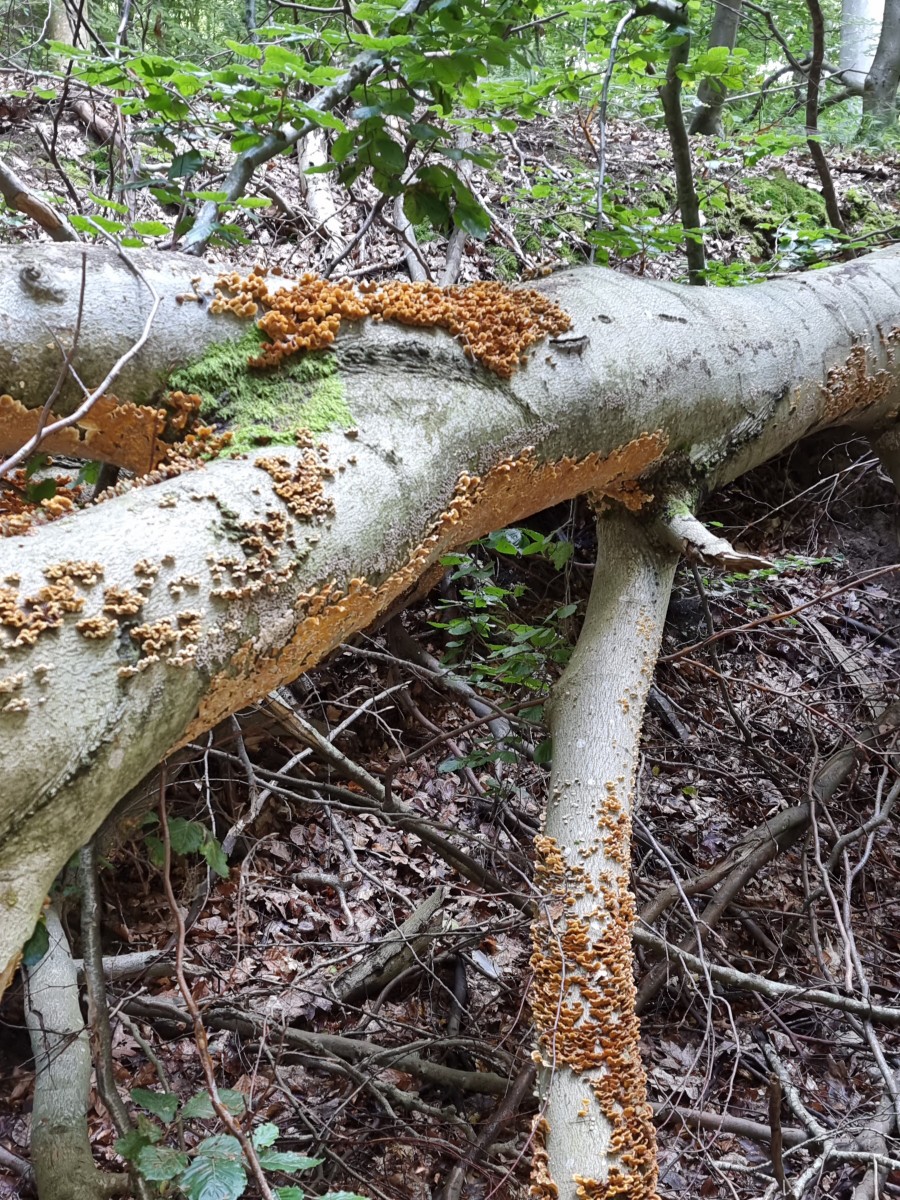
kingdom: Fungi
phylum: Basidiomycota
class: Agaricomycetes
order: Russulales
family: Stereaceae
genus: Stereum
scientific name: Stereum hirsutum
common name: håret lædersvamp
